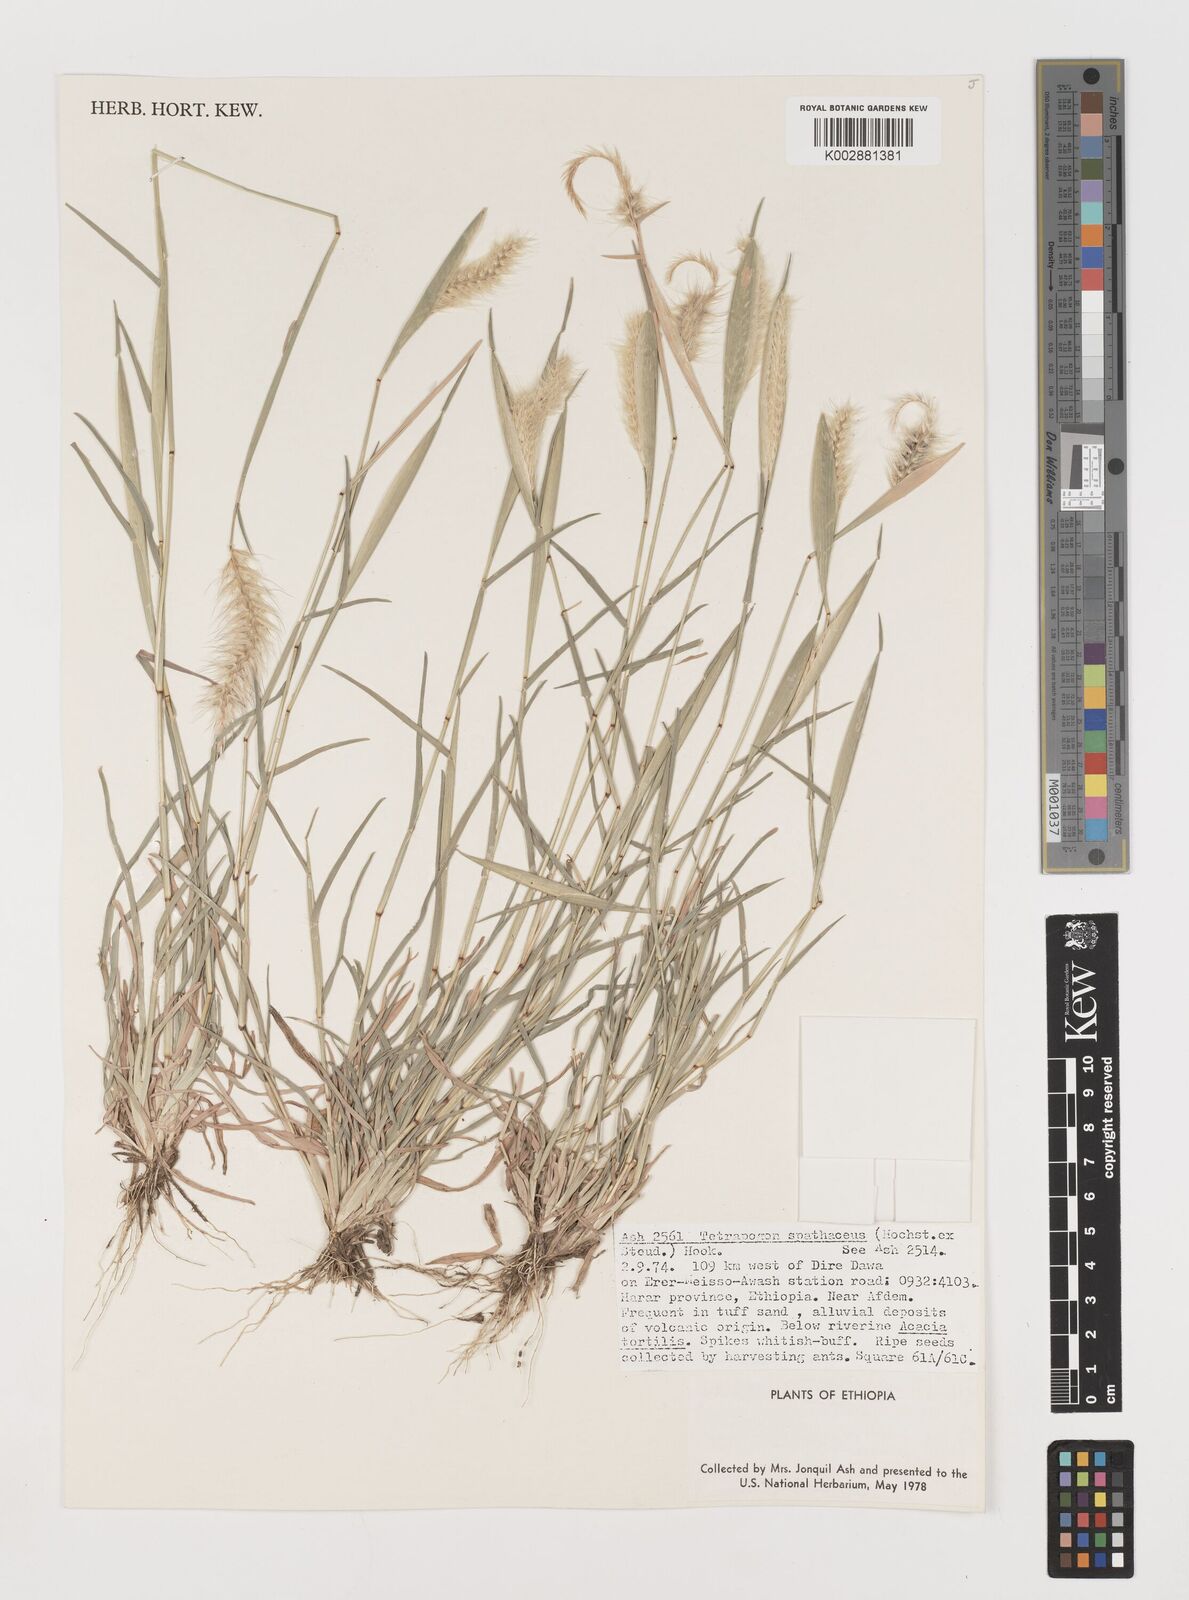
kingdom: Plantae
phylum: Tracheophyta
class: Liliopsida
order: Poales
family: Poaceae
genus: Tetrapogon
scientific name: Tetrapogon cenchriformis
